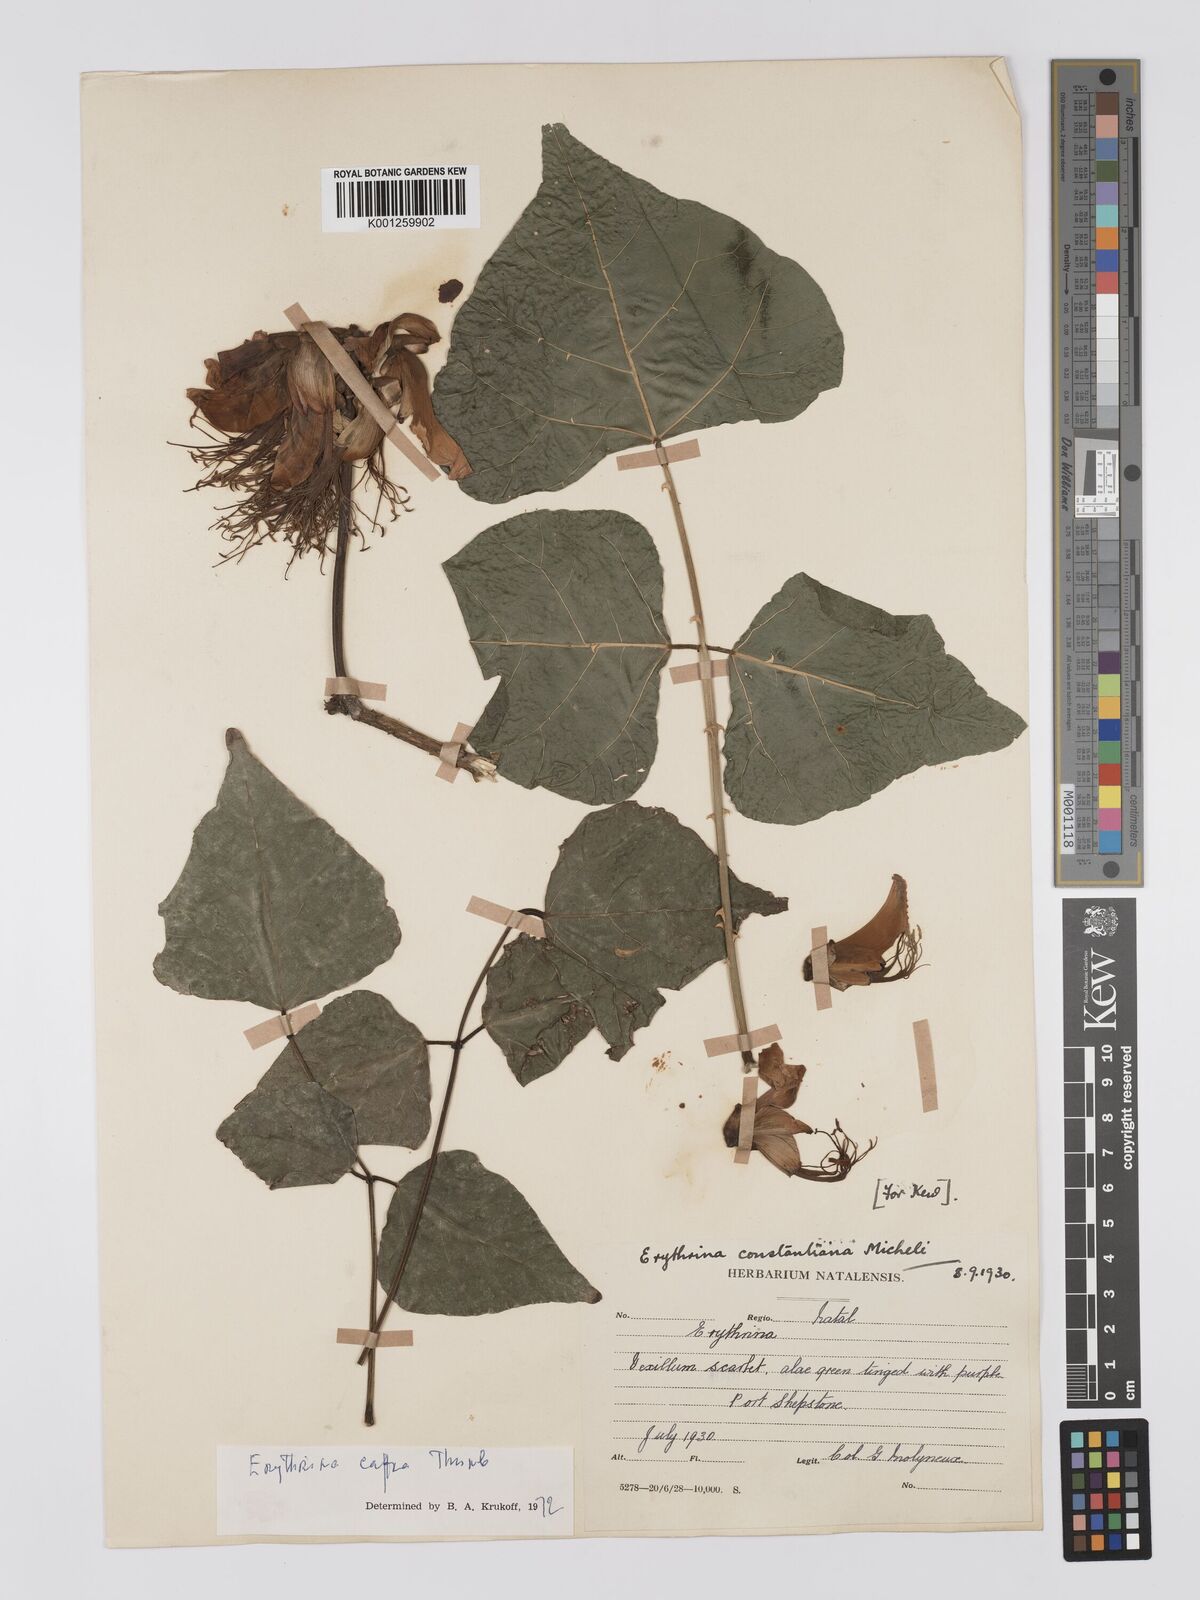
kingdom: Plantae
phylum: Tracheophyta
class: Magnoliopsida
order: Fabales
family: Fabaceae
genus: Erythrina
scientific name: Erythrina caffra
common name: Coast coral tree
